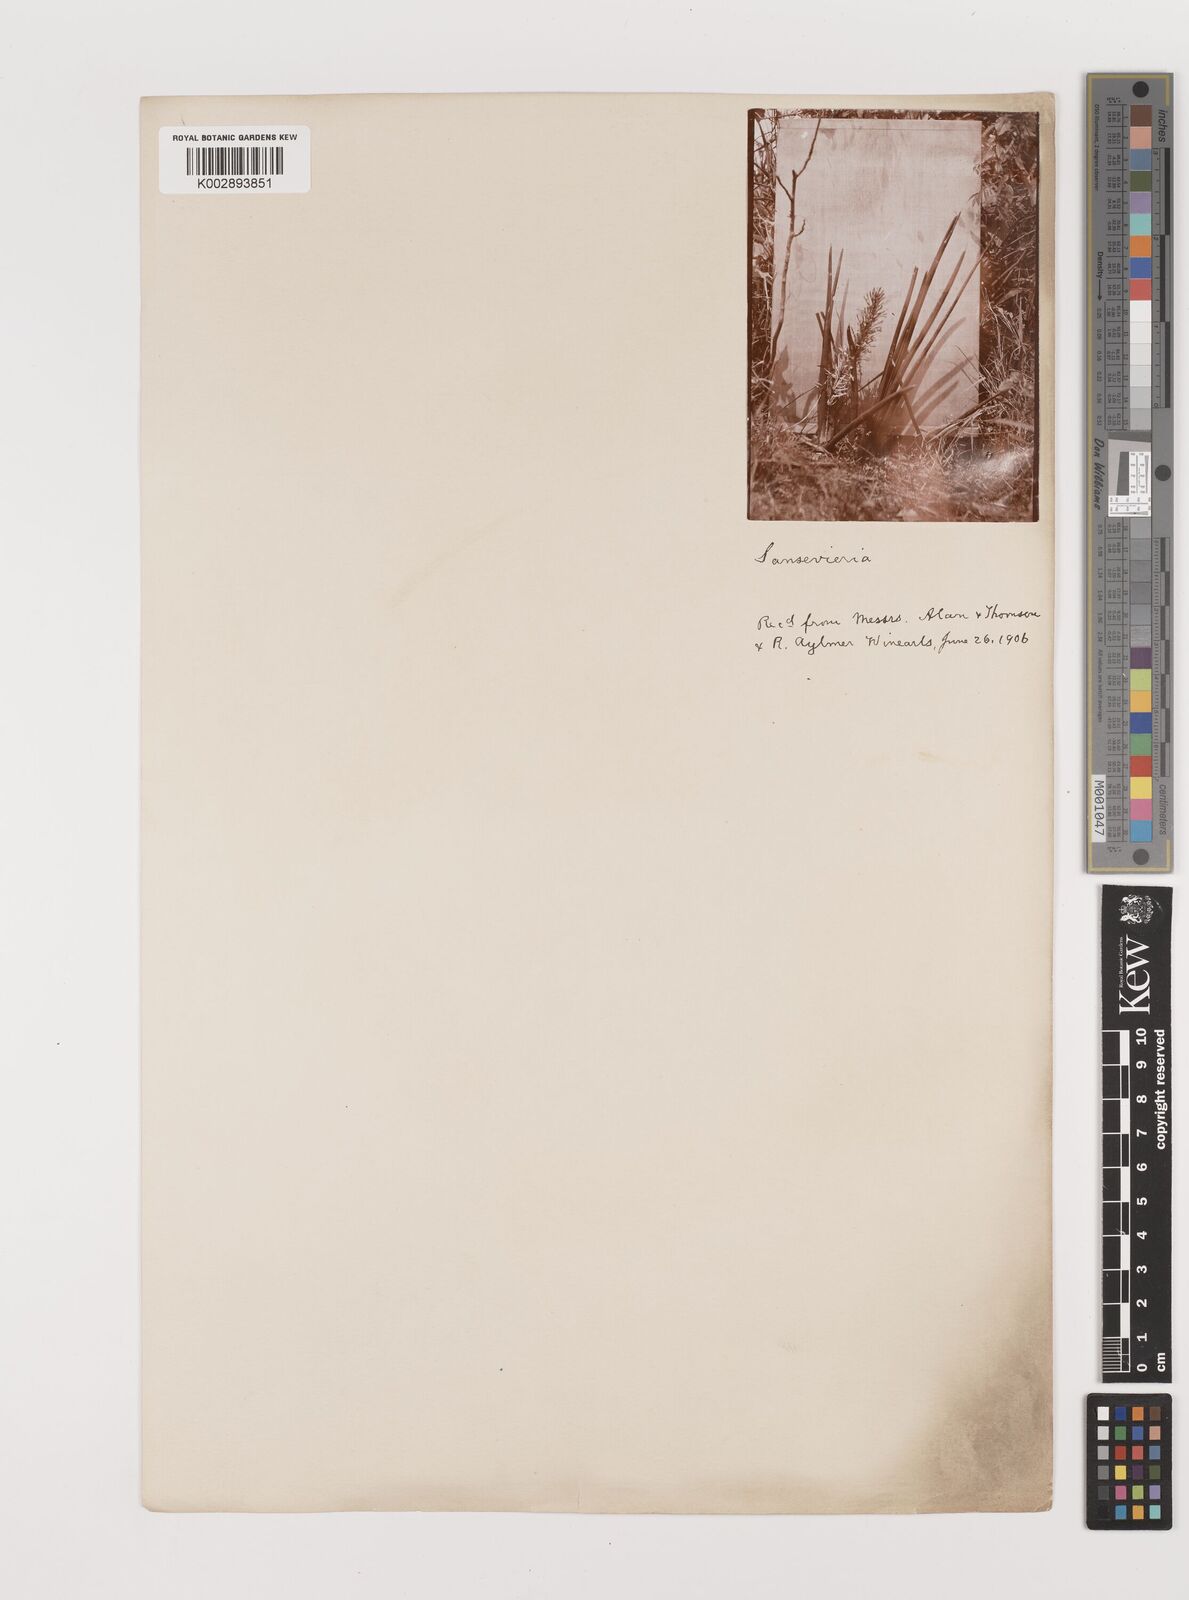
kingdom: Plantae
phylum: Tracheophyta
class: Liliopsida
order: Asparagales
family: Asparagaceae
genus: Dracaena
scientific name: Dracaena
